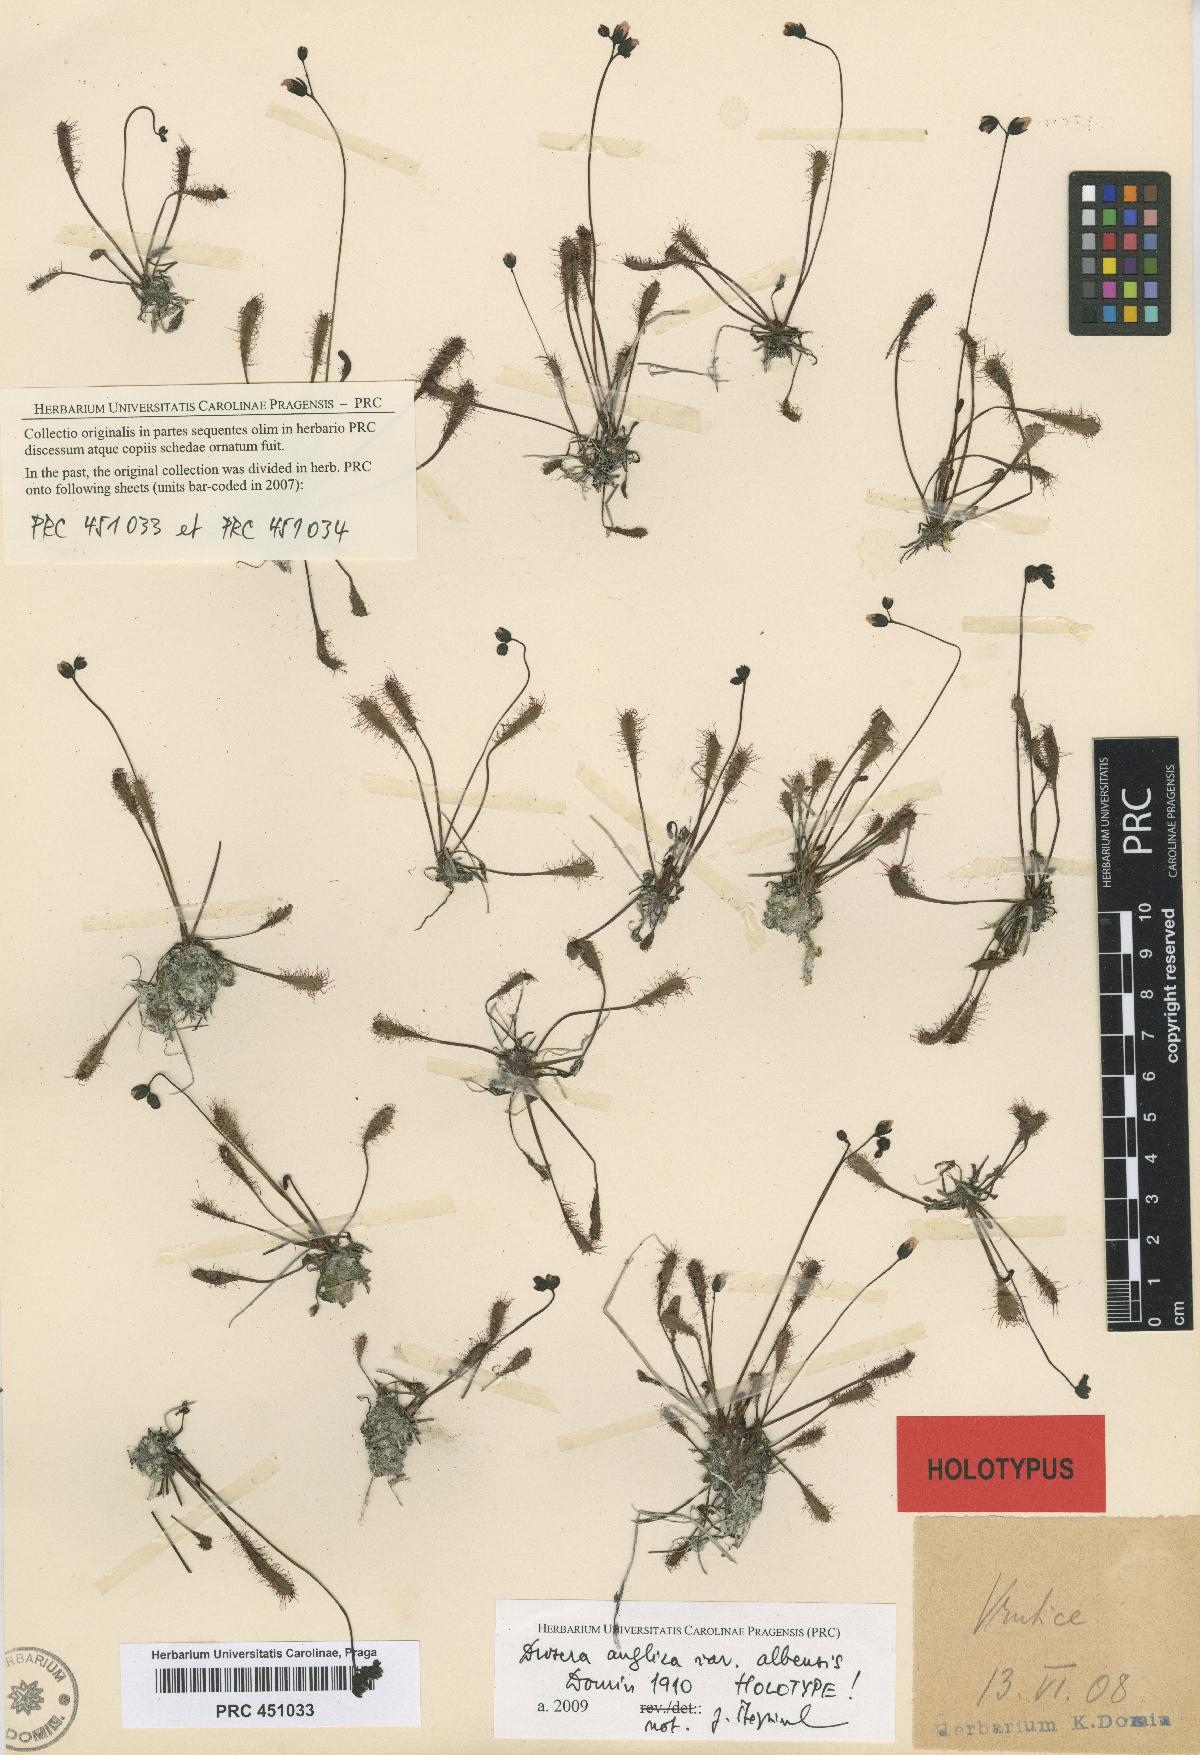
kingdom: Plantae
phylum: Tracheophyta
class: Magnoliopsida
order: Caryophyllales
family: Droseraceae
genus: Drosera
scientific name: Drosera anglica
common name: Great sundew
